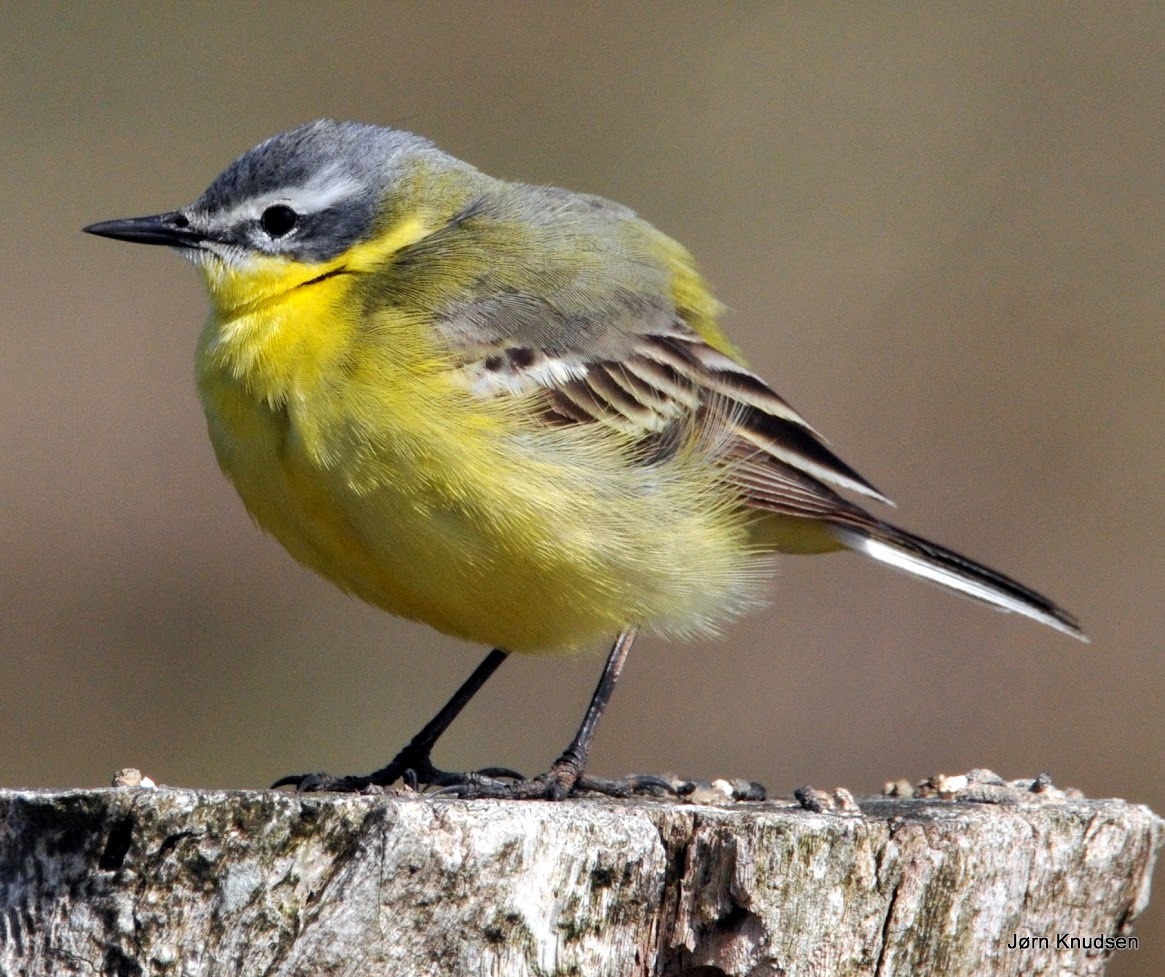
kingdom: Animalia
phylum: Chordata
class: Aves
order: Passeriformes
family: Motacillidae
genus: Motacilla
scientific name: Motacilla flava
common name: Gul vipstjert
